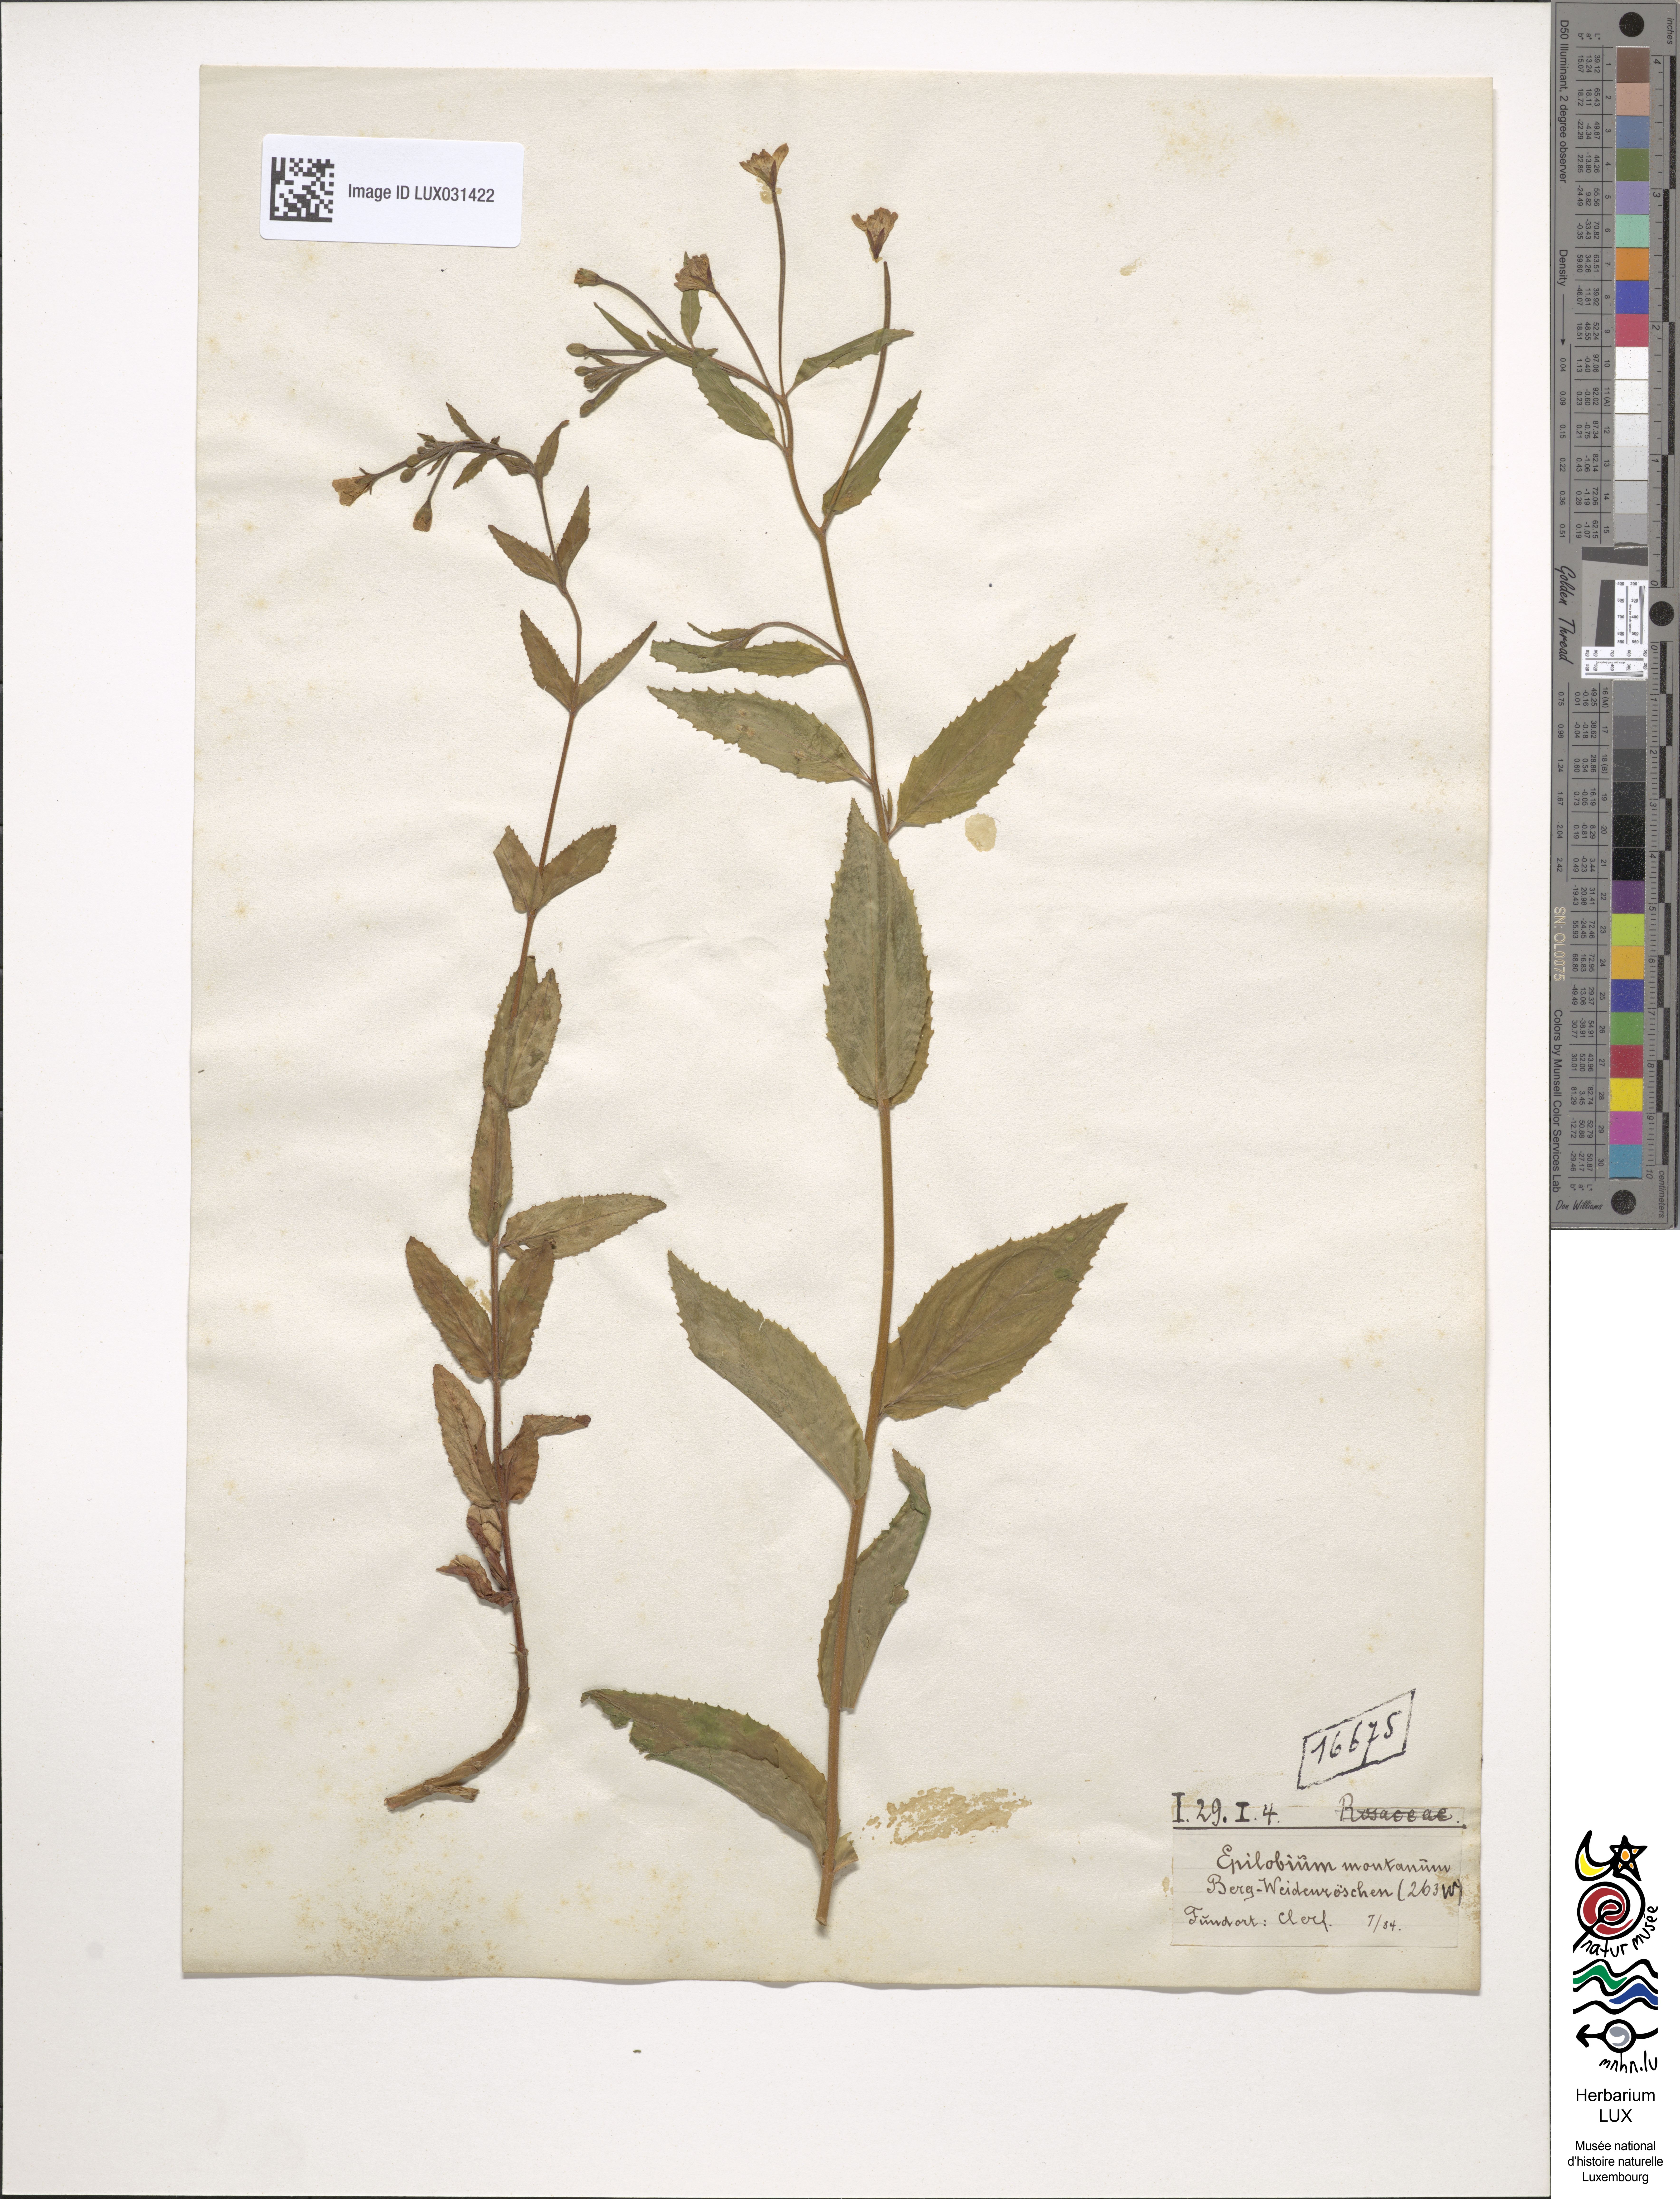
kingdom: Plantae
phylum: Tracheophyta
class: Magnoliopsida
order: Myrtales
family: Onagraceae
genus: Epilobium
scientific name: Epilobium montanum
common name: Broad-leaved willowherb
